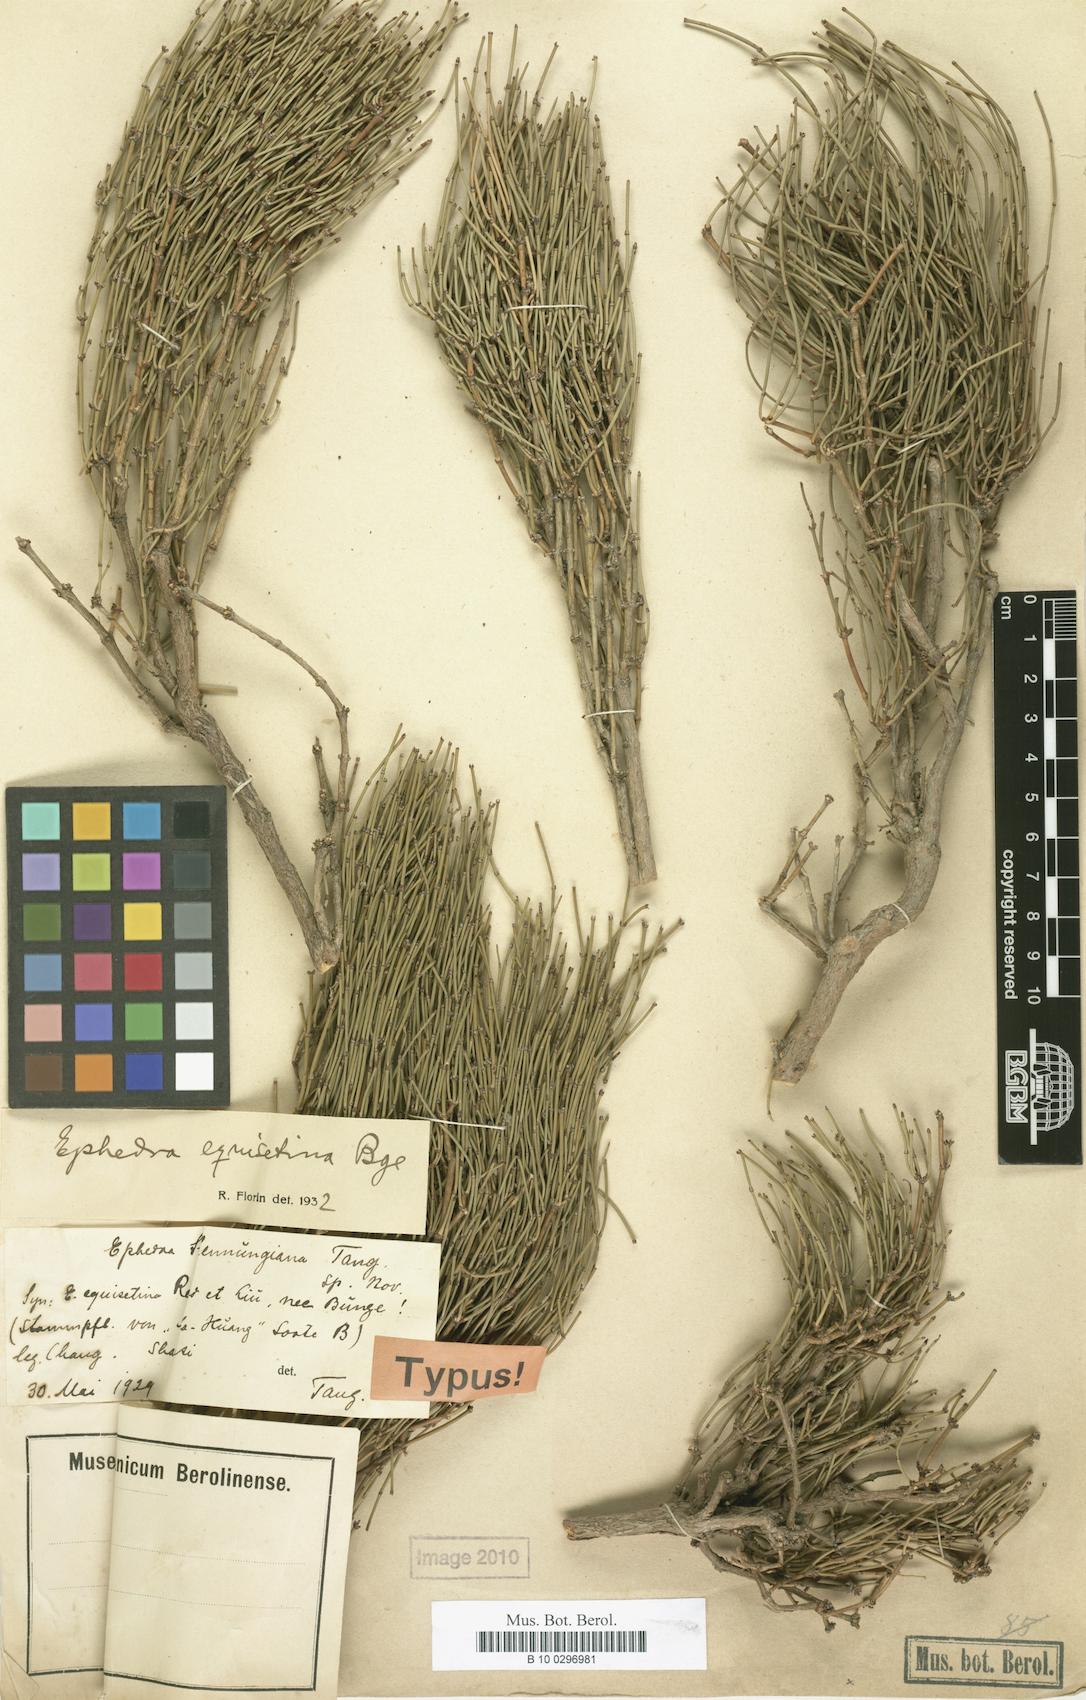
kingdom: Plantae
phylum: Tracheophyta
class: Gnetopsida
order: Ephedrales
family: Ephedraceae
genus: Ephedra
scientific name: Ephedra equisetina
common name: Mongolian ephedra
